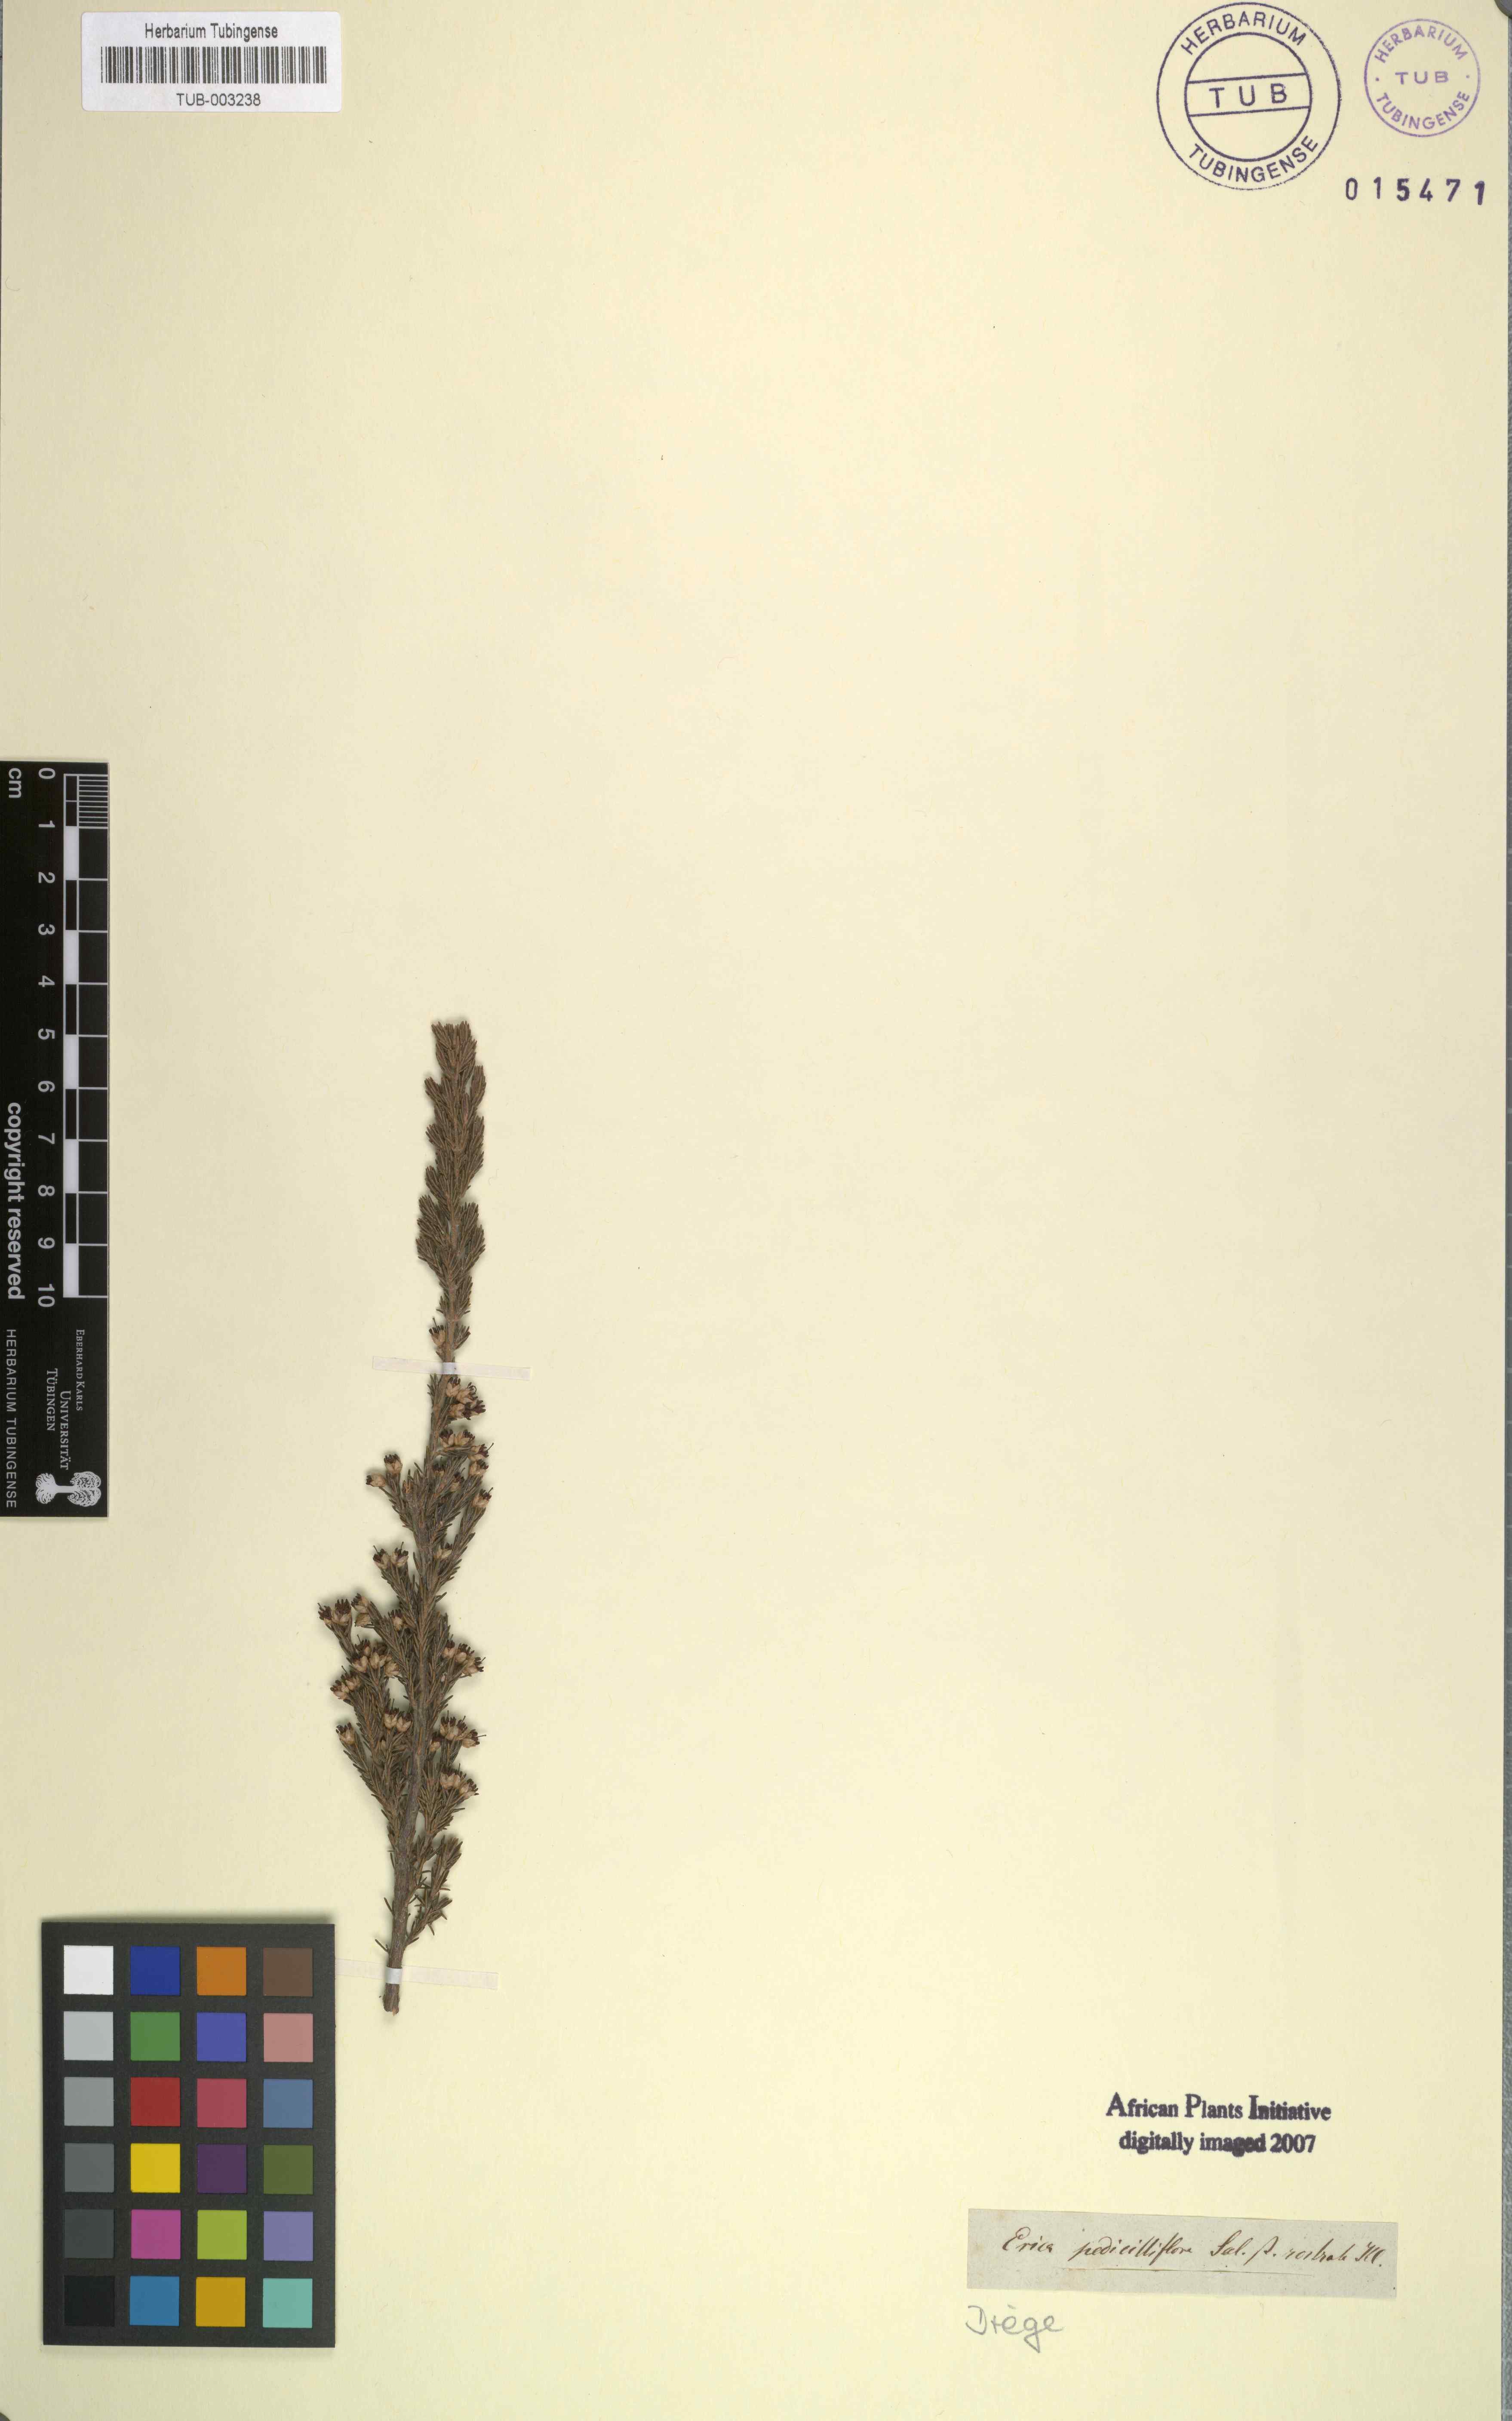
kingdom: Plantae
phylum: Tracheophyta
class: Magnoliopsida
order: Ericales
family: Ericaceae
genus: Erica
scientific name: Erica penicilliformis
